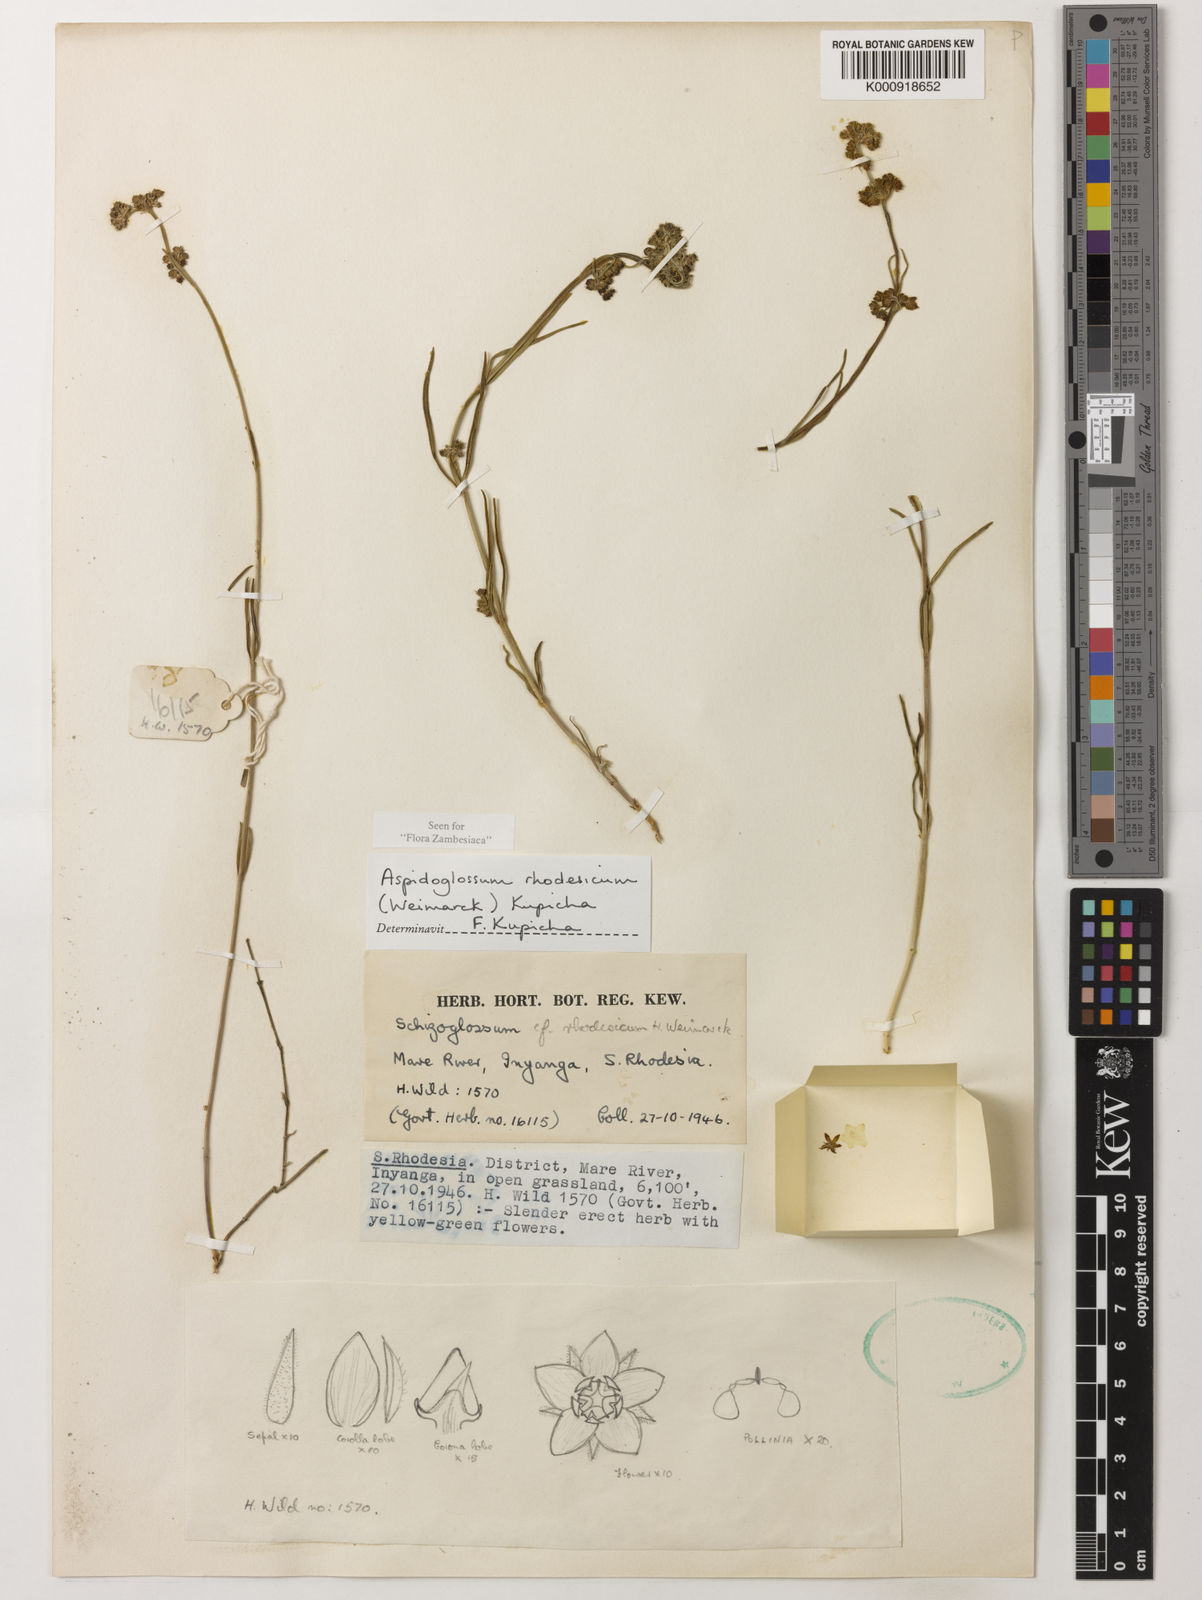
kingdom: Plantae
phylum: Tracheophyta
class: Magnoliopsida
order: Gentianales
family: Apocynaceae
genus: Aspidoglossum
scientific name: Aspidoglossum rhodesicum
